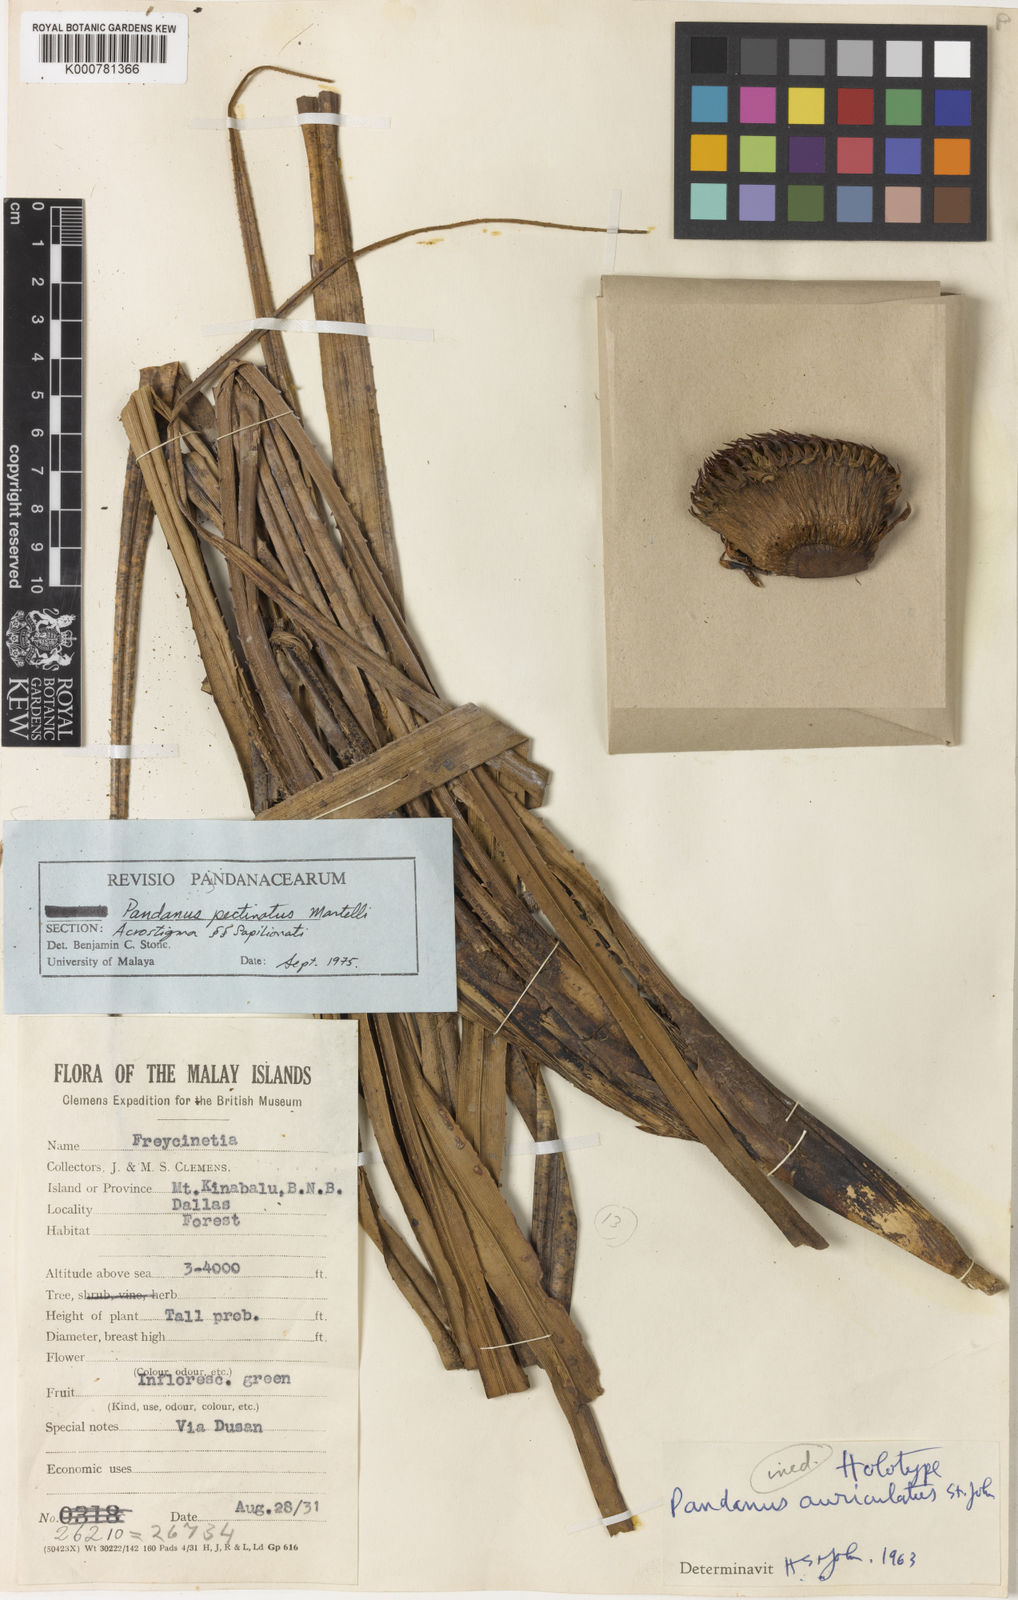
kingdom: Plantae
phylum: Tracheophyta
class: Liliopsida
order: Pandanales
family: Pandanaceae
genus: Benstonea
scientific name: Benstonea pectinata
